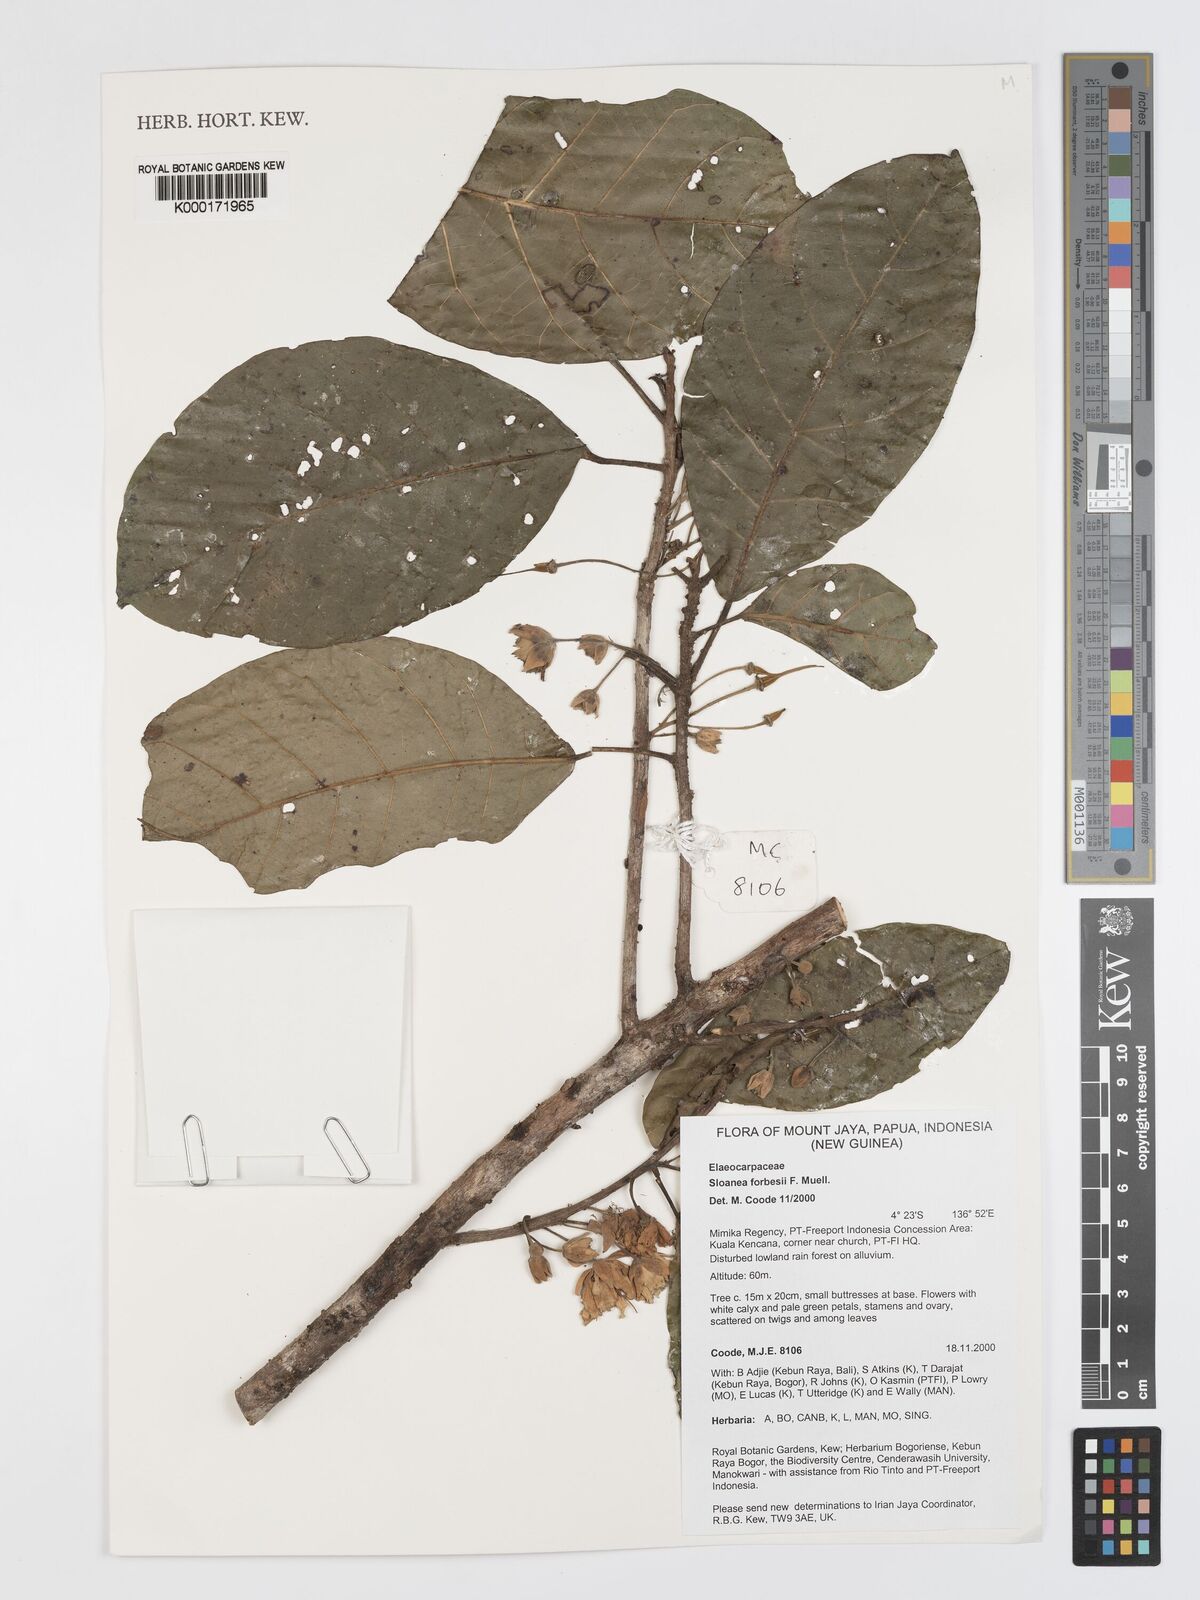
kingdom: Plantae
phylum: Tracheophyta
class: Magnoliopsida
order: Oxalidales
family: Elaeocarpaceae
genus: Sloanea
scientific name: Sloanea forbesii
